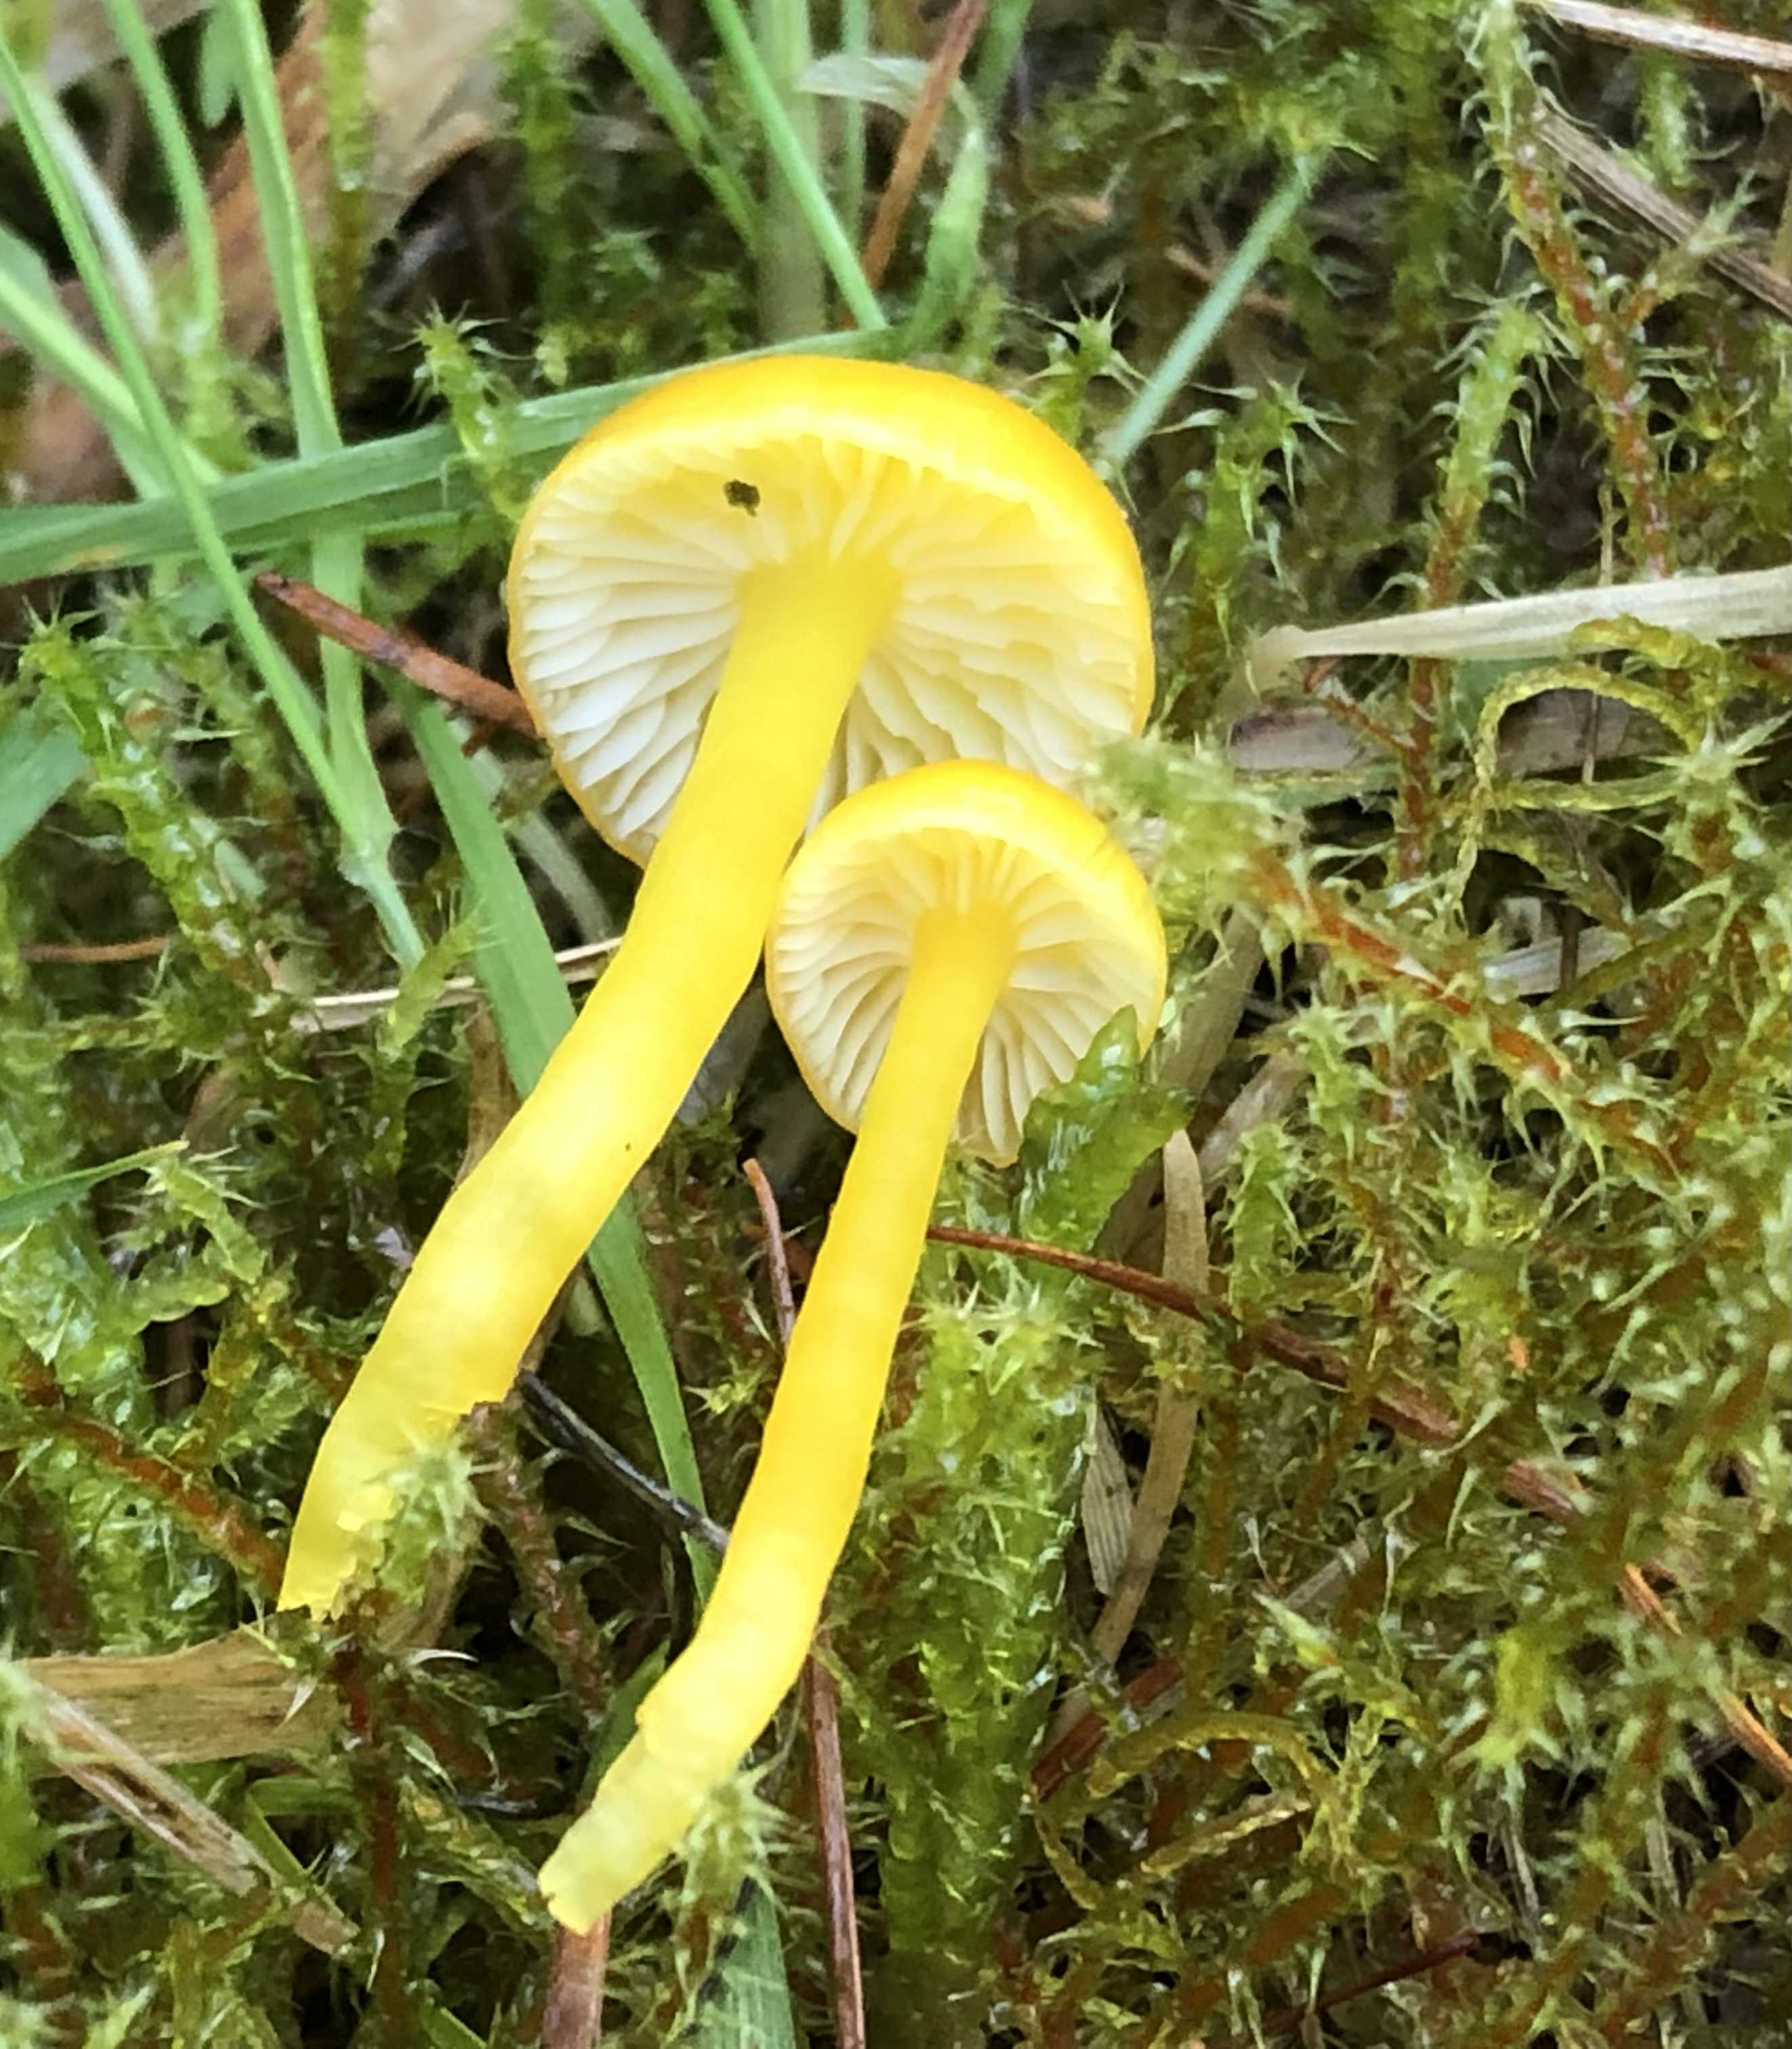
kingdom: Fungi
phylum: Basidiomycota
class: Agaricomycetes
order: Agaricales
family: Hygrophoraceae
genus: Hygrocybe
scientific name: Hygrocybe ceracea
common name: voksgul vokshat
